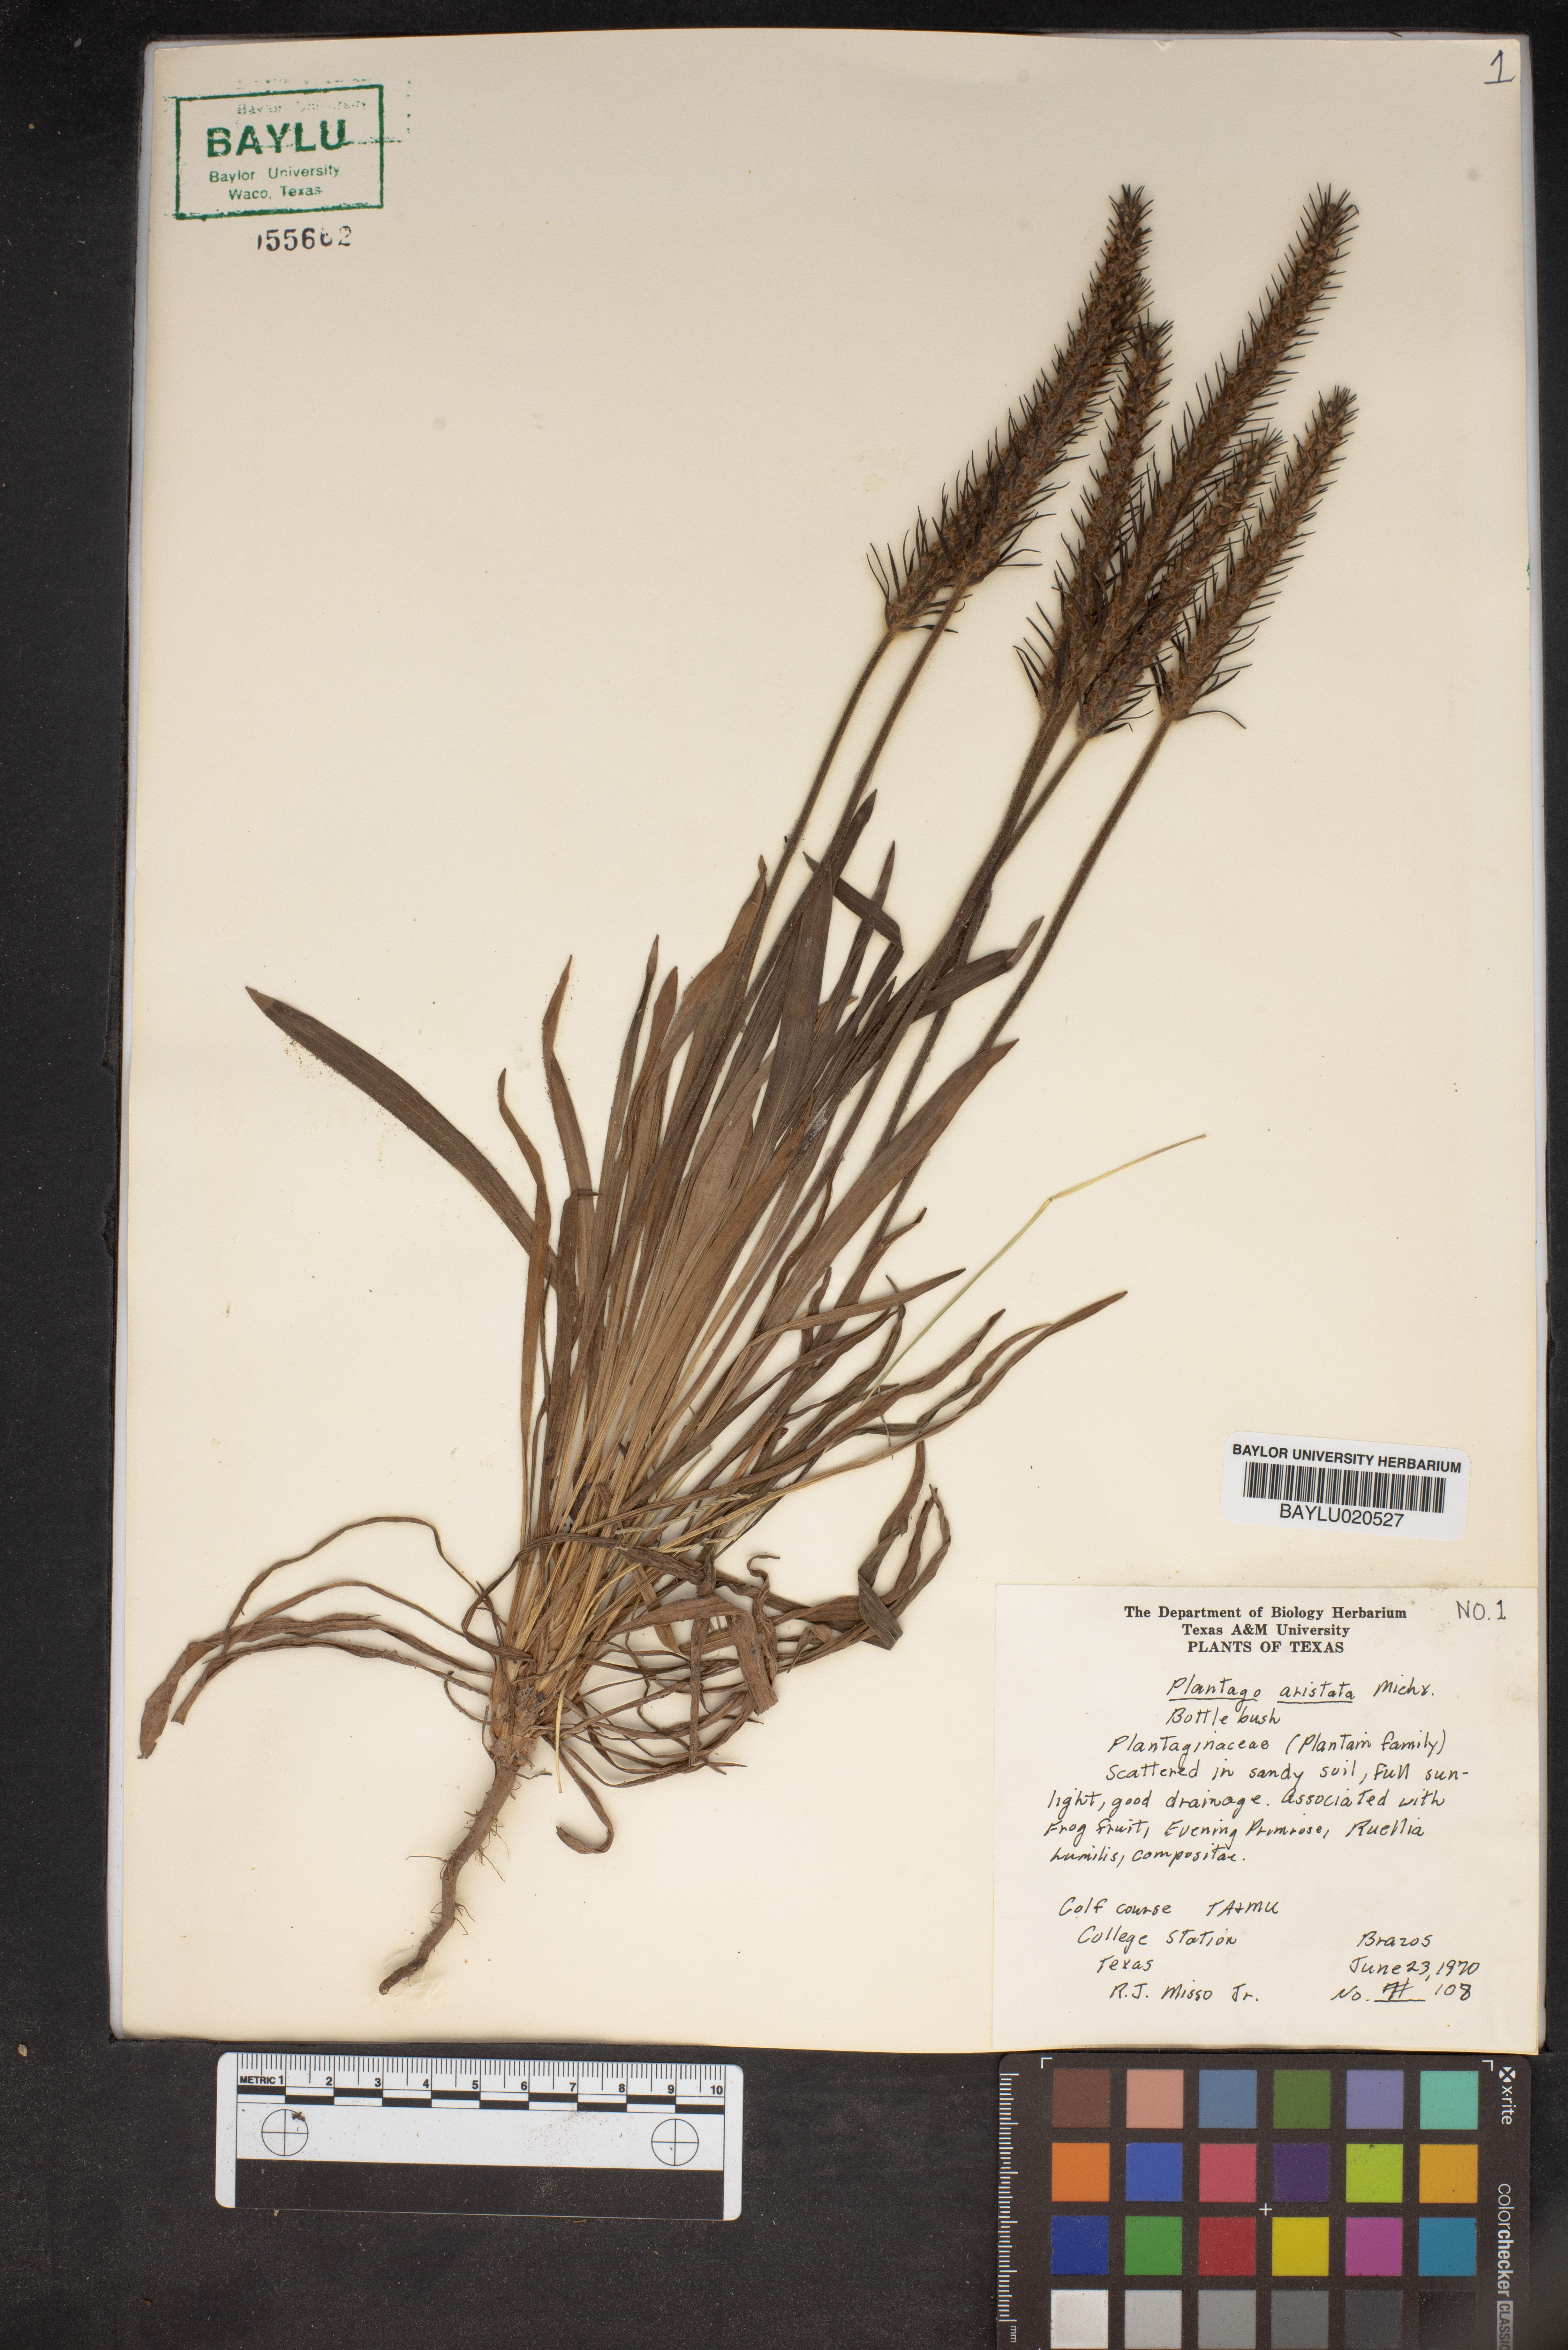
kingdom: Plantae
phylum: Tracheophyta
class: Magnoliopsida
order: Lamiales
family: Plantaginaceae
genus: Plantago
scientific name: Plantago aristata
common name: Bracted plantain
